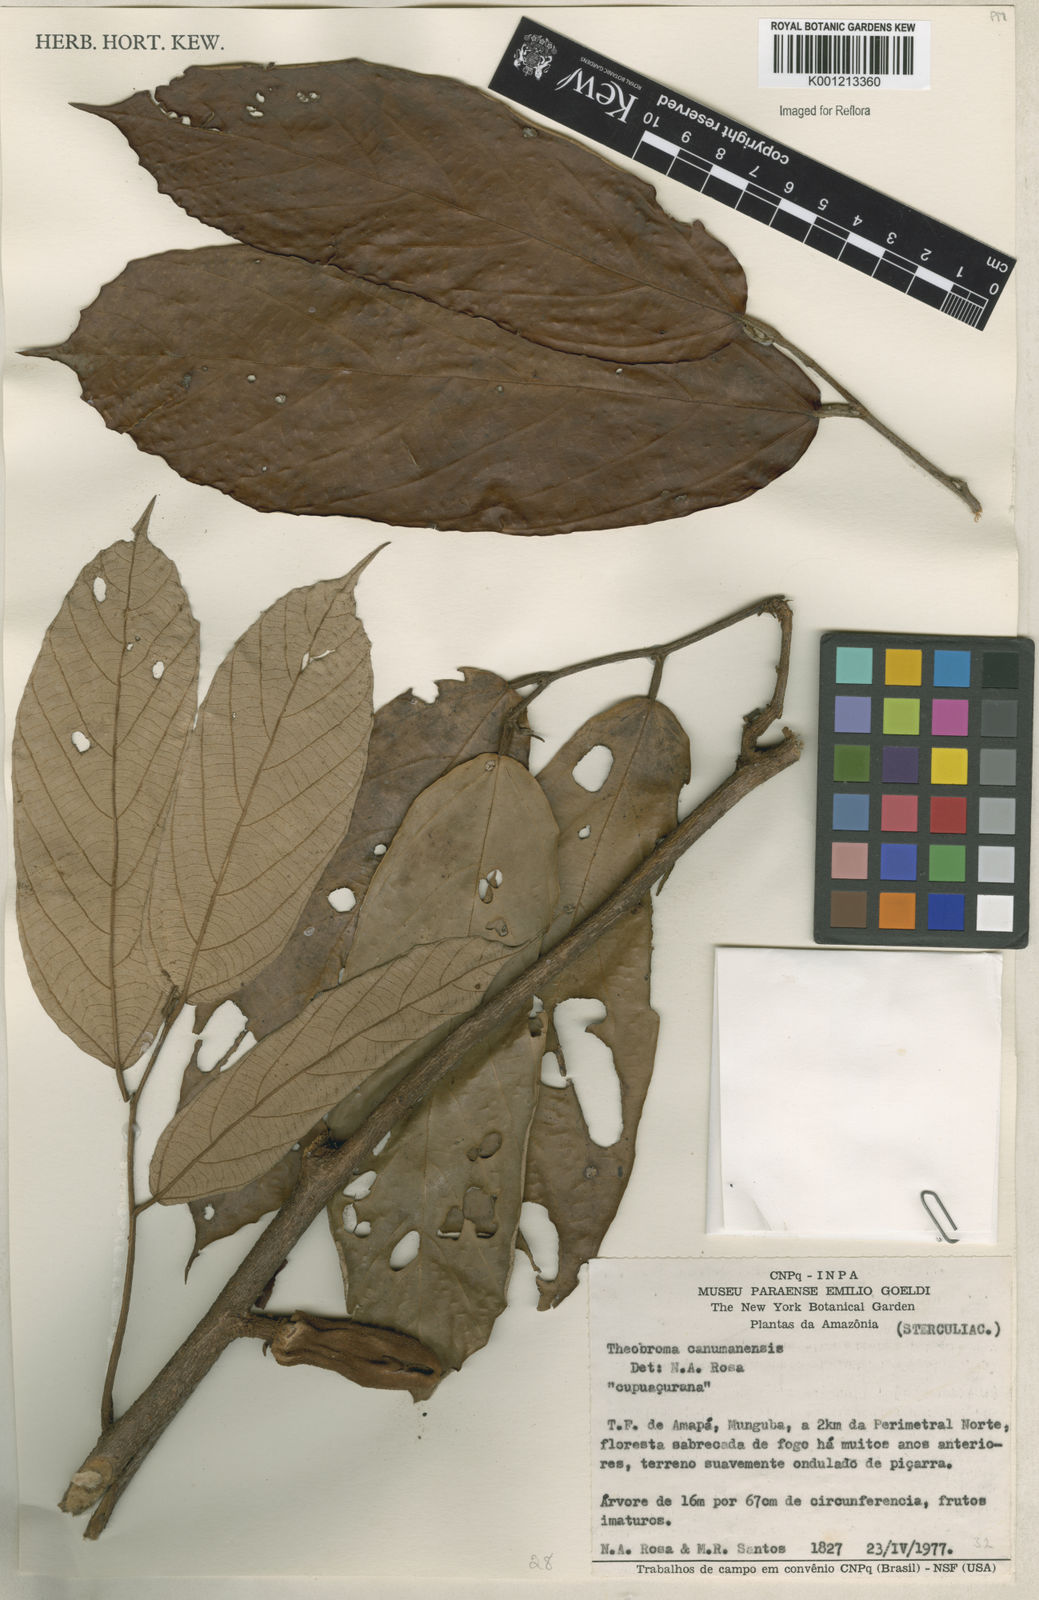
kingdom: Plantae
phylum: Tracheophyta
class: Magnoliopsida
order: Malvales
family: Malvaceae
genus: Theobroma
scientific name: Theobroma subincanum
